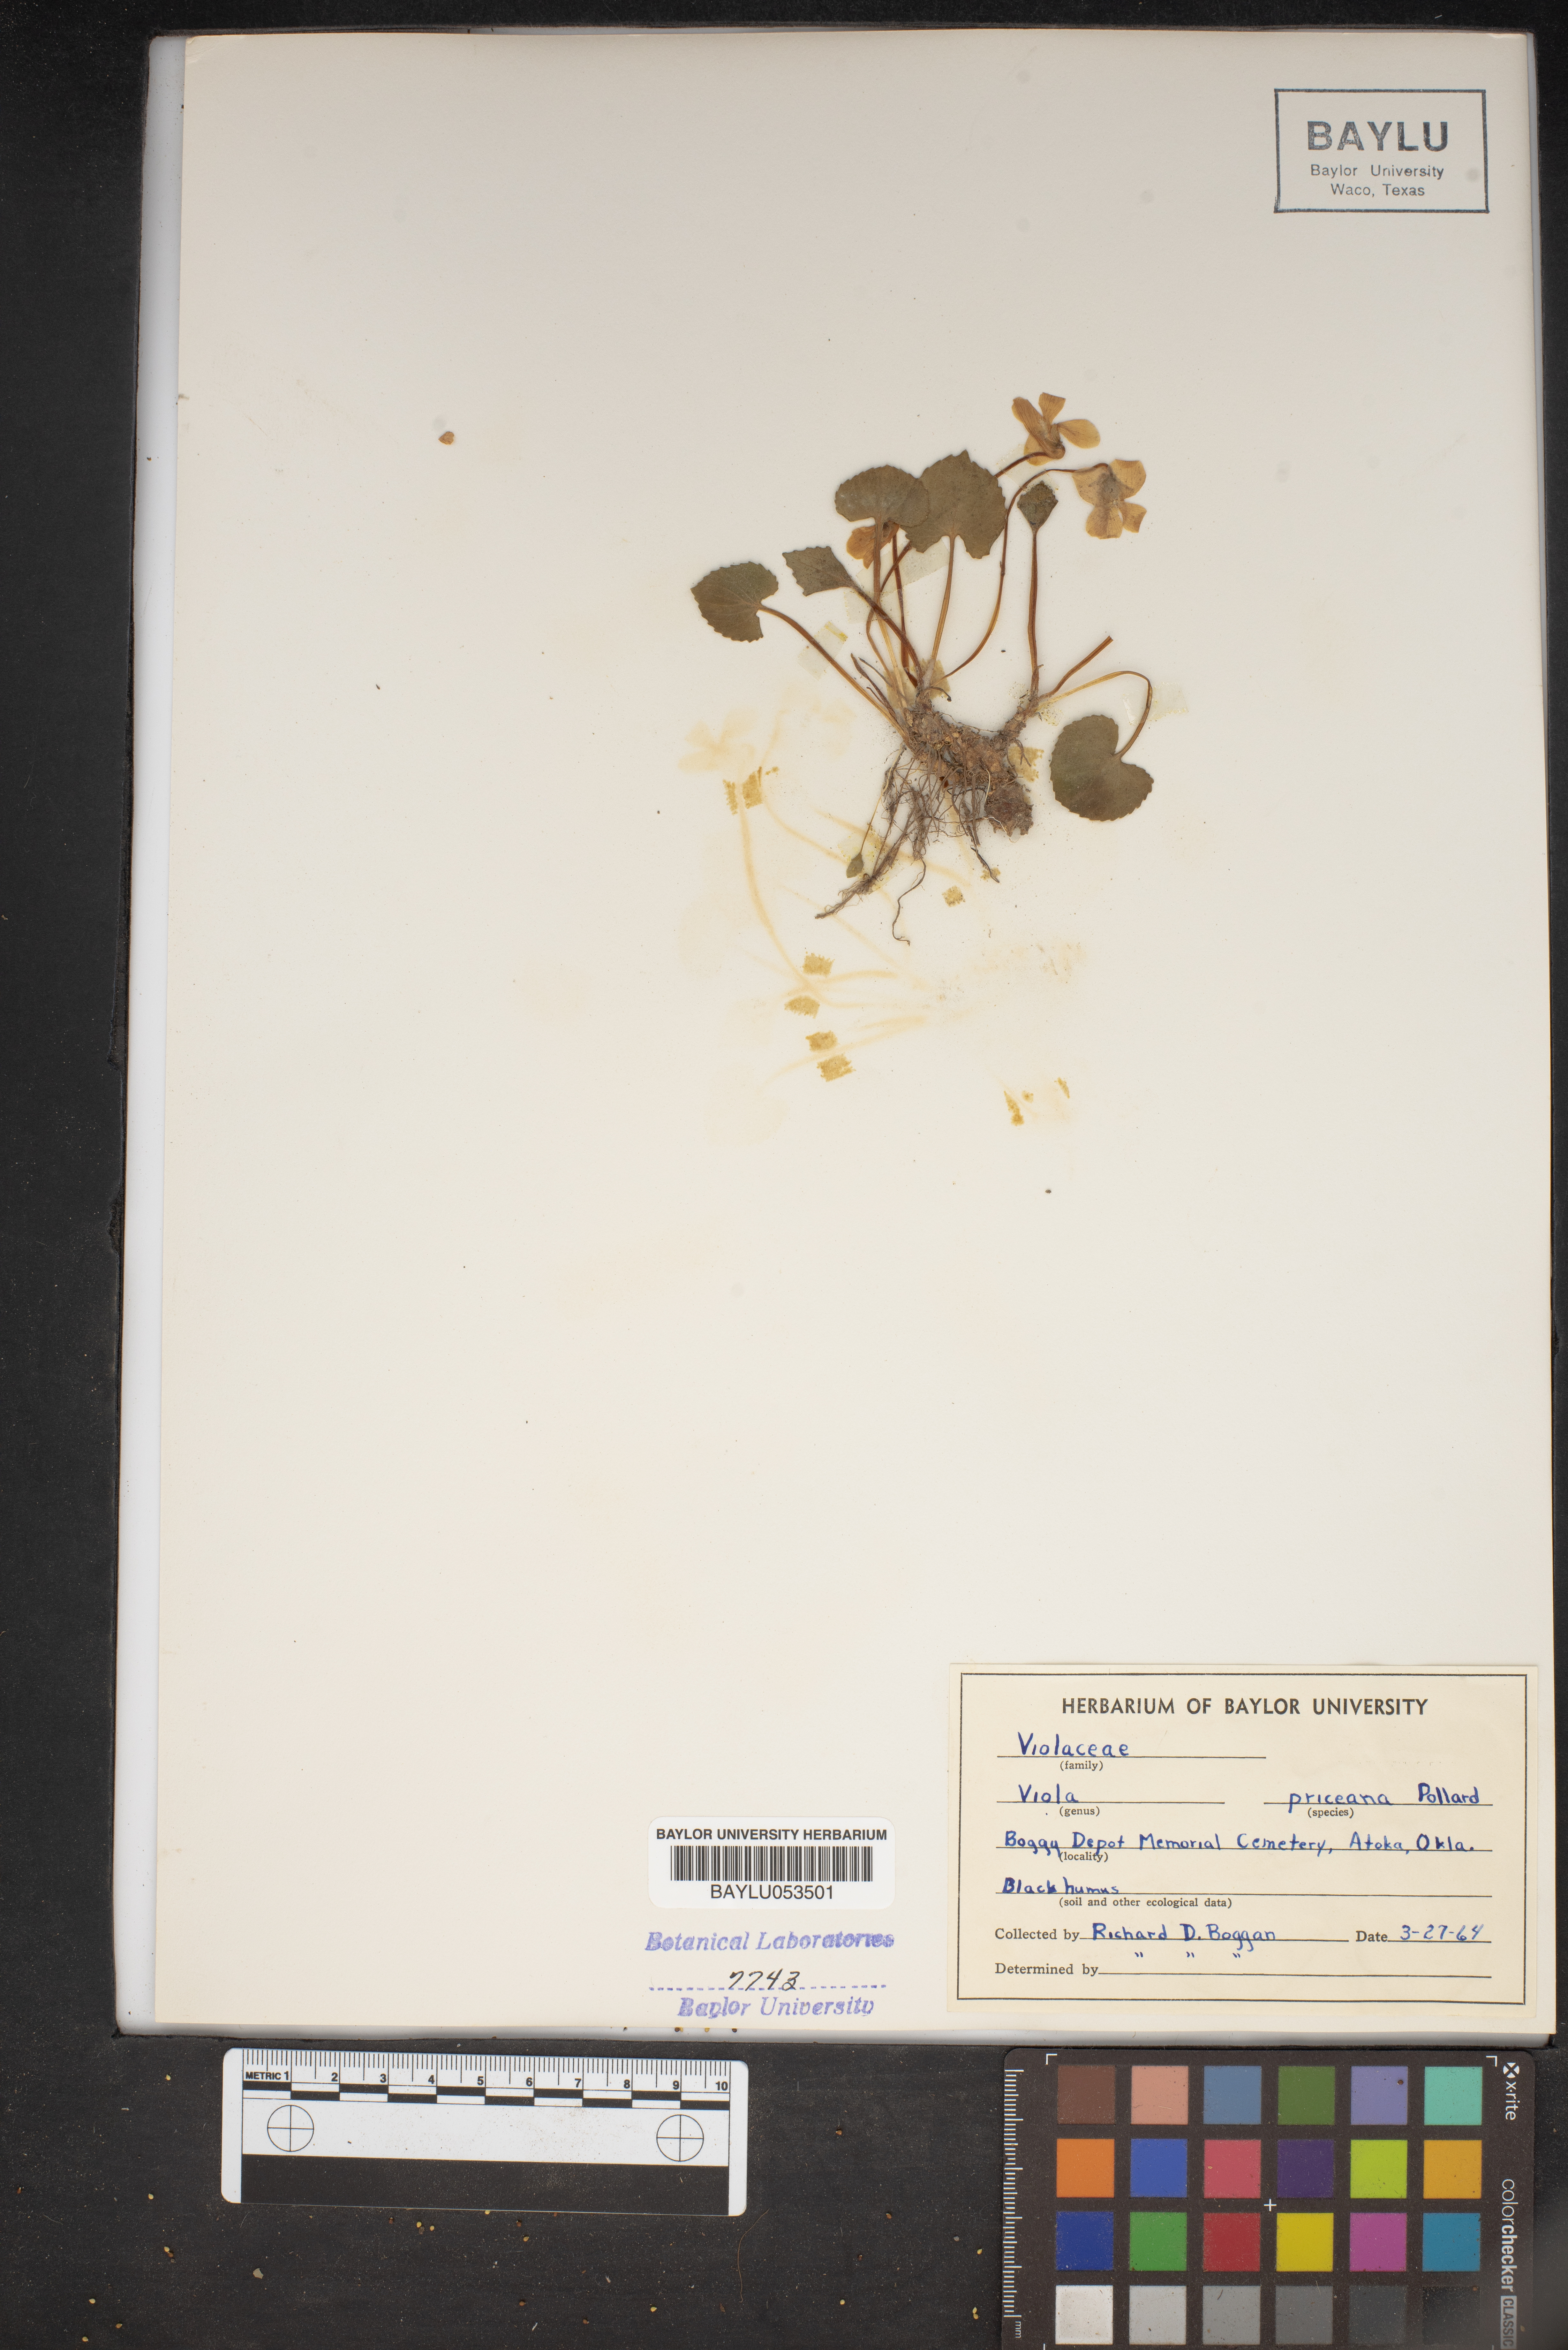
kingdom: Plantae
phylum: Tracheophyta
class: Magnoliopsida
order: Malpighiales
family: Violaceae
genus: Viola
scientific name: Viola communis
